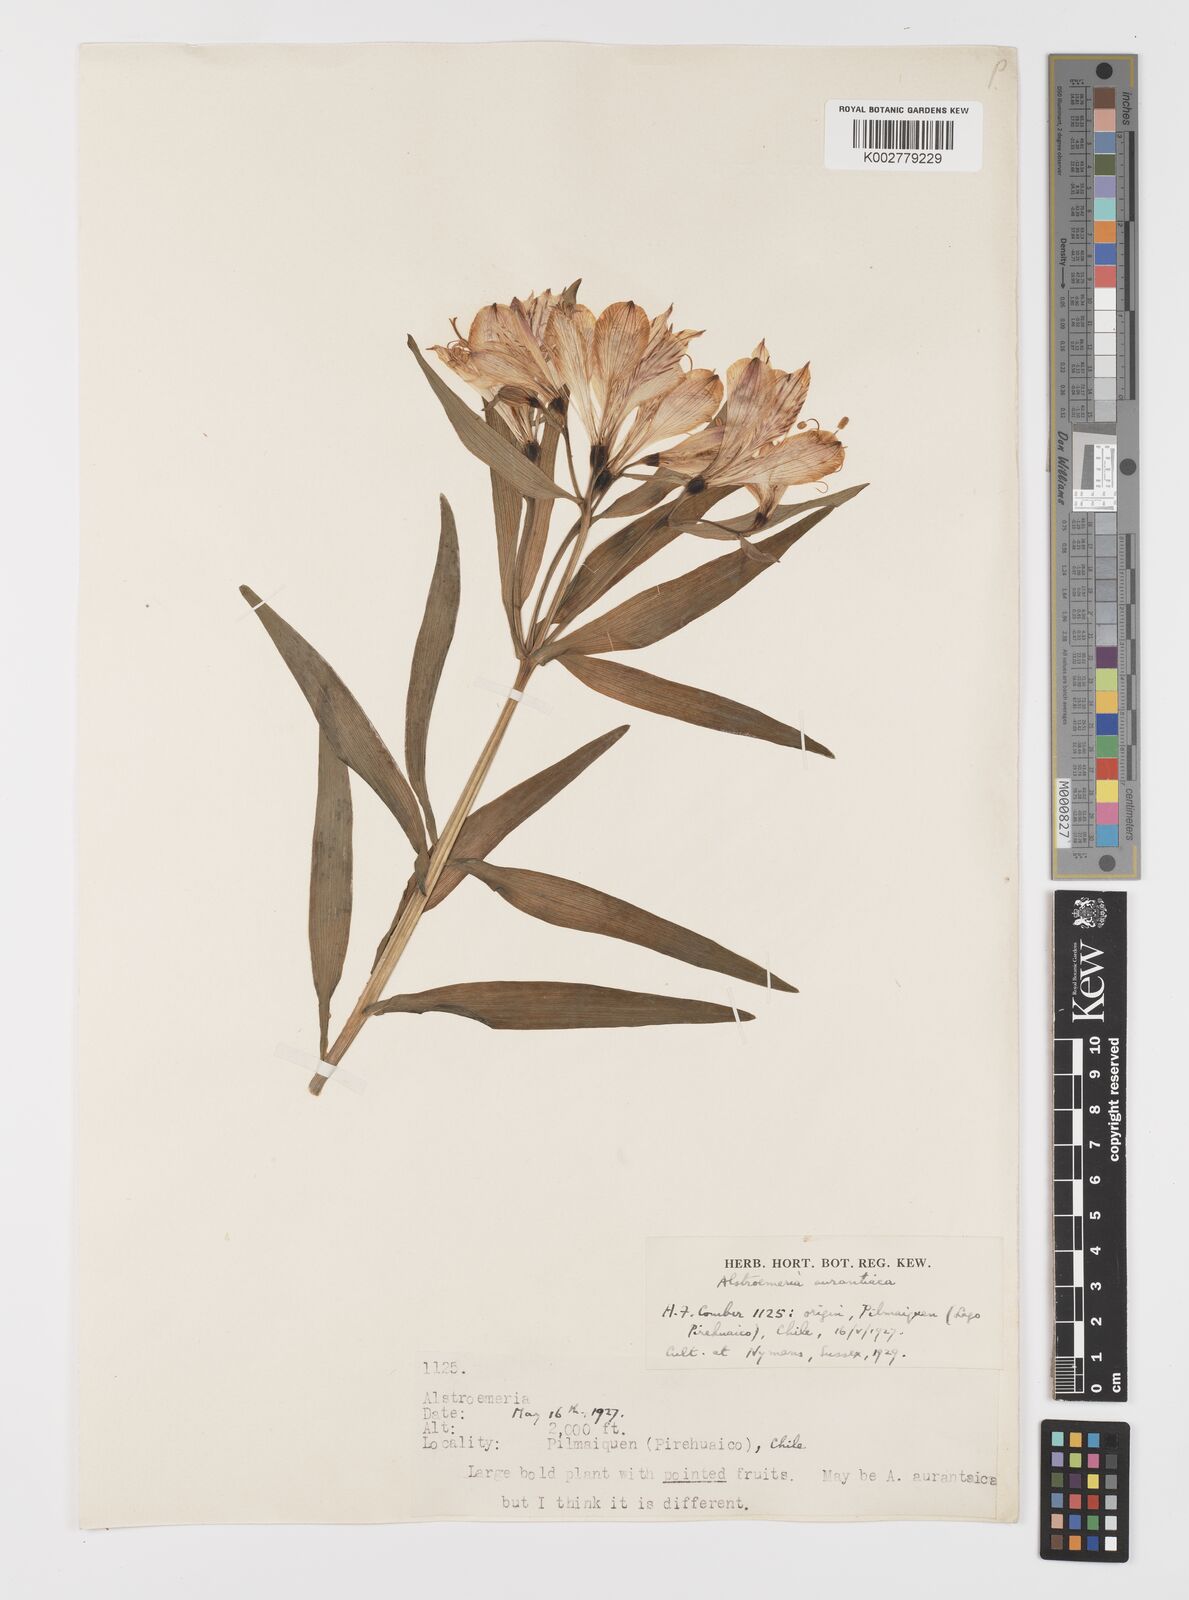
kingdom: Plantae
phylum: Tracheophyta
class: Liliopsida
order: Liliales
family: Alstroemeriaceae
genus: Alstroemeria
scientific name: Alstroemeria aurea
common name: Peruvian lily
